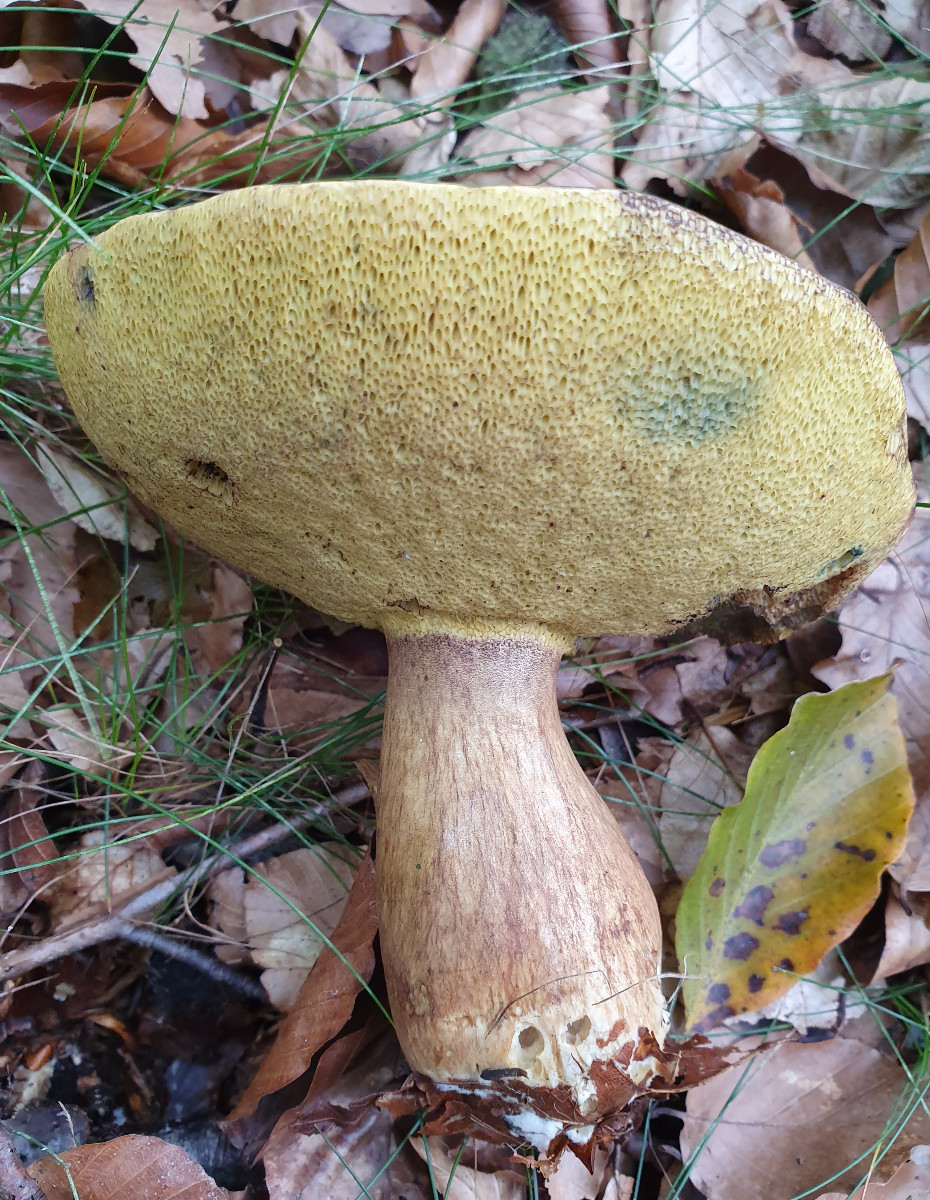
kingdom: Fungi
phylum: Basidiomycota
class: Agaricomycetes
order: Boletales
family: Boletaceae
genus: Imleria
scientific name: Imleria badia
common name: brunstokket rørhat
